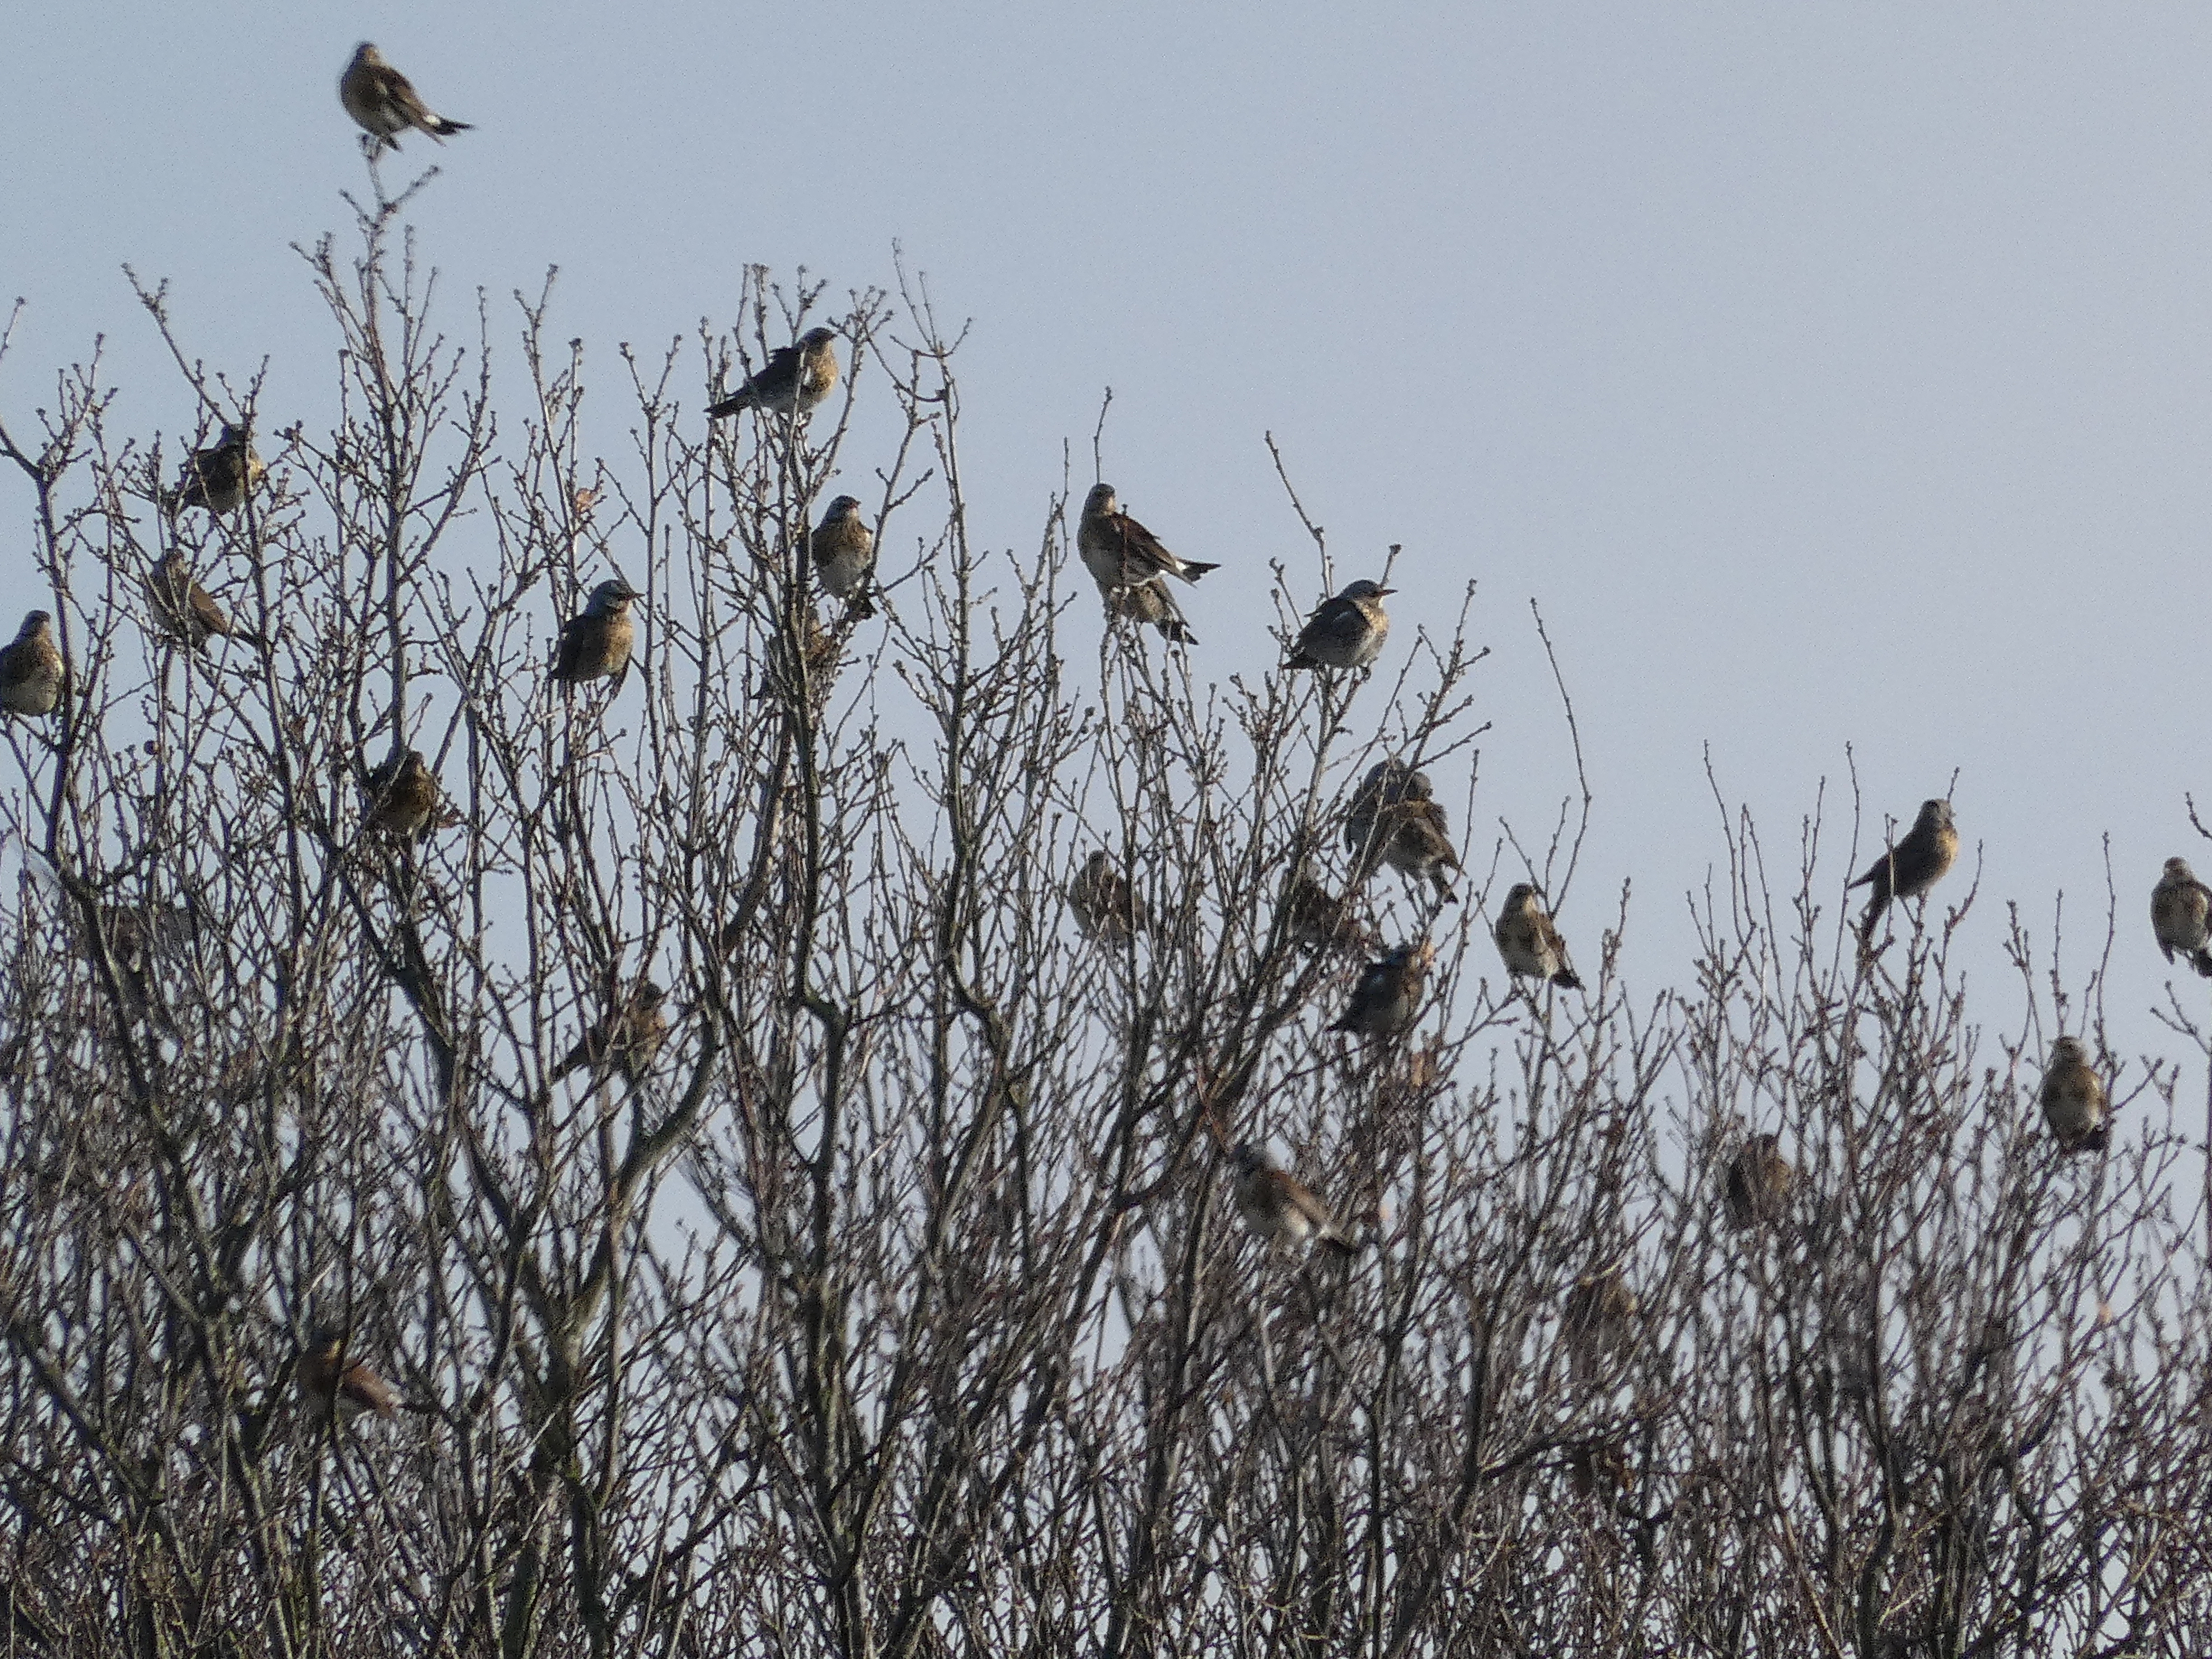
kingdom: Animalia
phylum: Chordata
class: Aves
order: Passeriformes
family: Turdidae
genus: Turdus
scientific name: Turdus pilaris
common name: Sjagger
